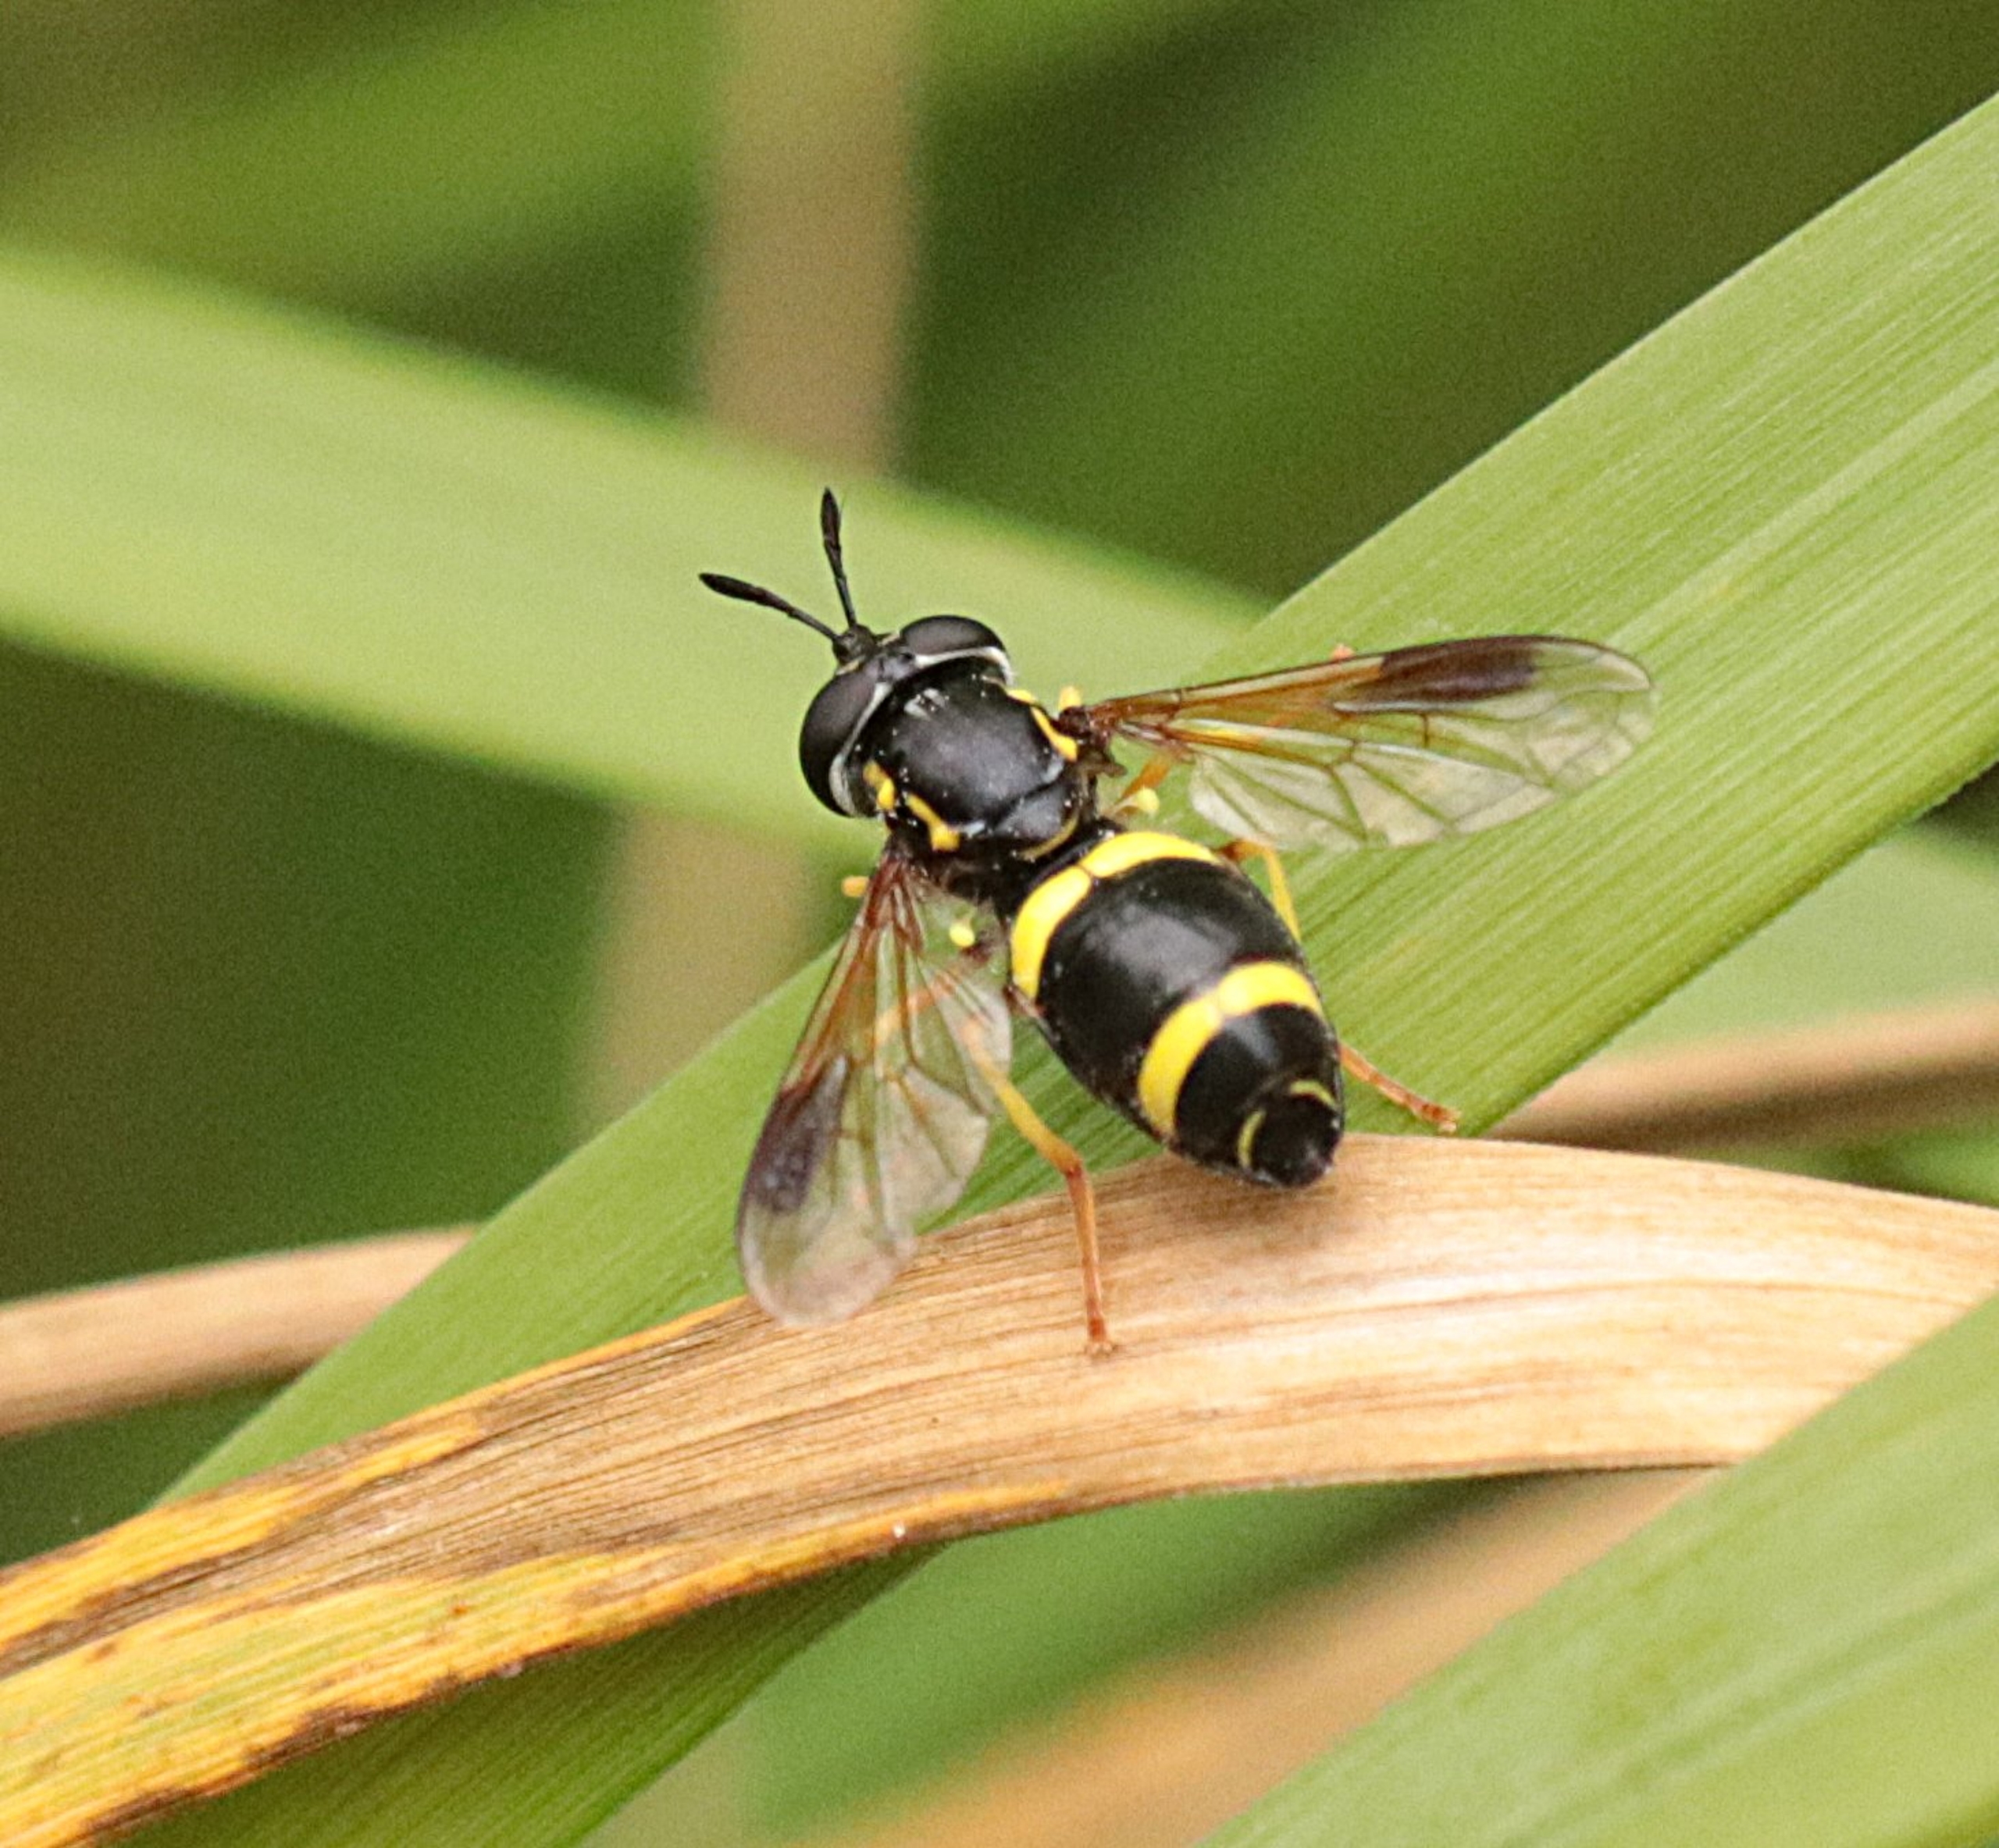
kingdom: Animalia
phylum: Arthropoda
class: Insecta
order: Diptera
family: Syrphidae
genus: Chrysotoxum
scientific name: Chrysotoxum bicincta
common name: Tobåndet hvepsesvirreflue
